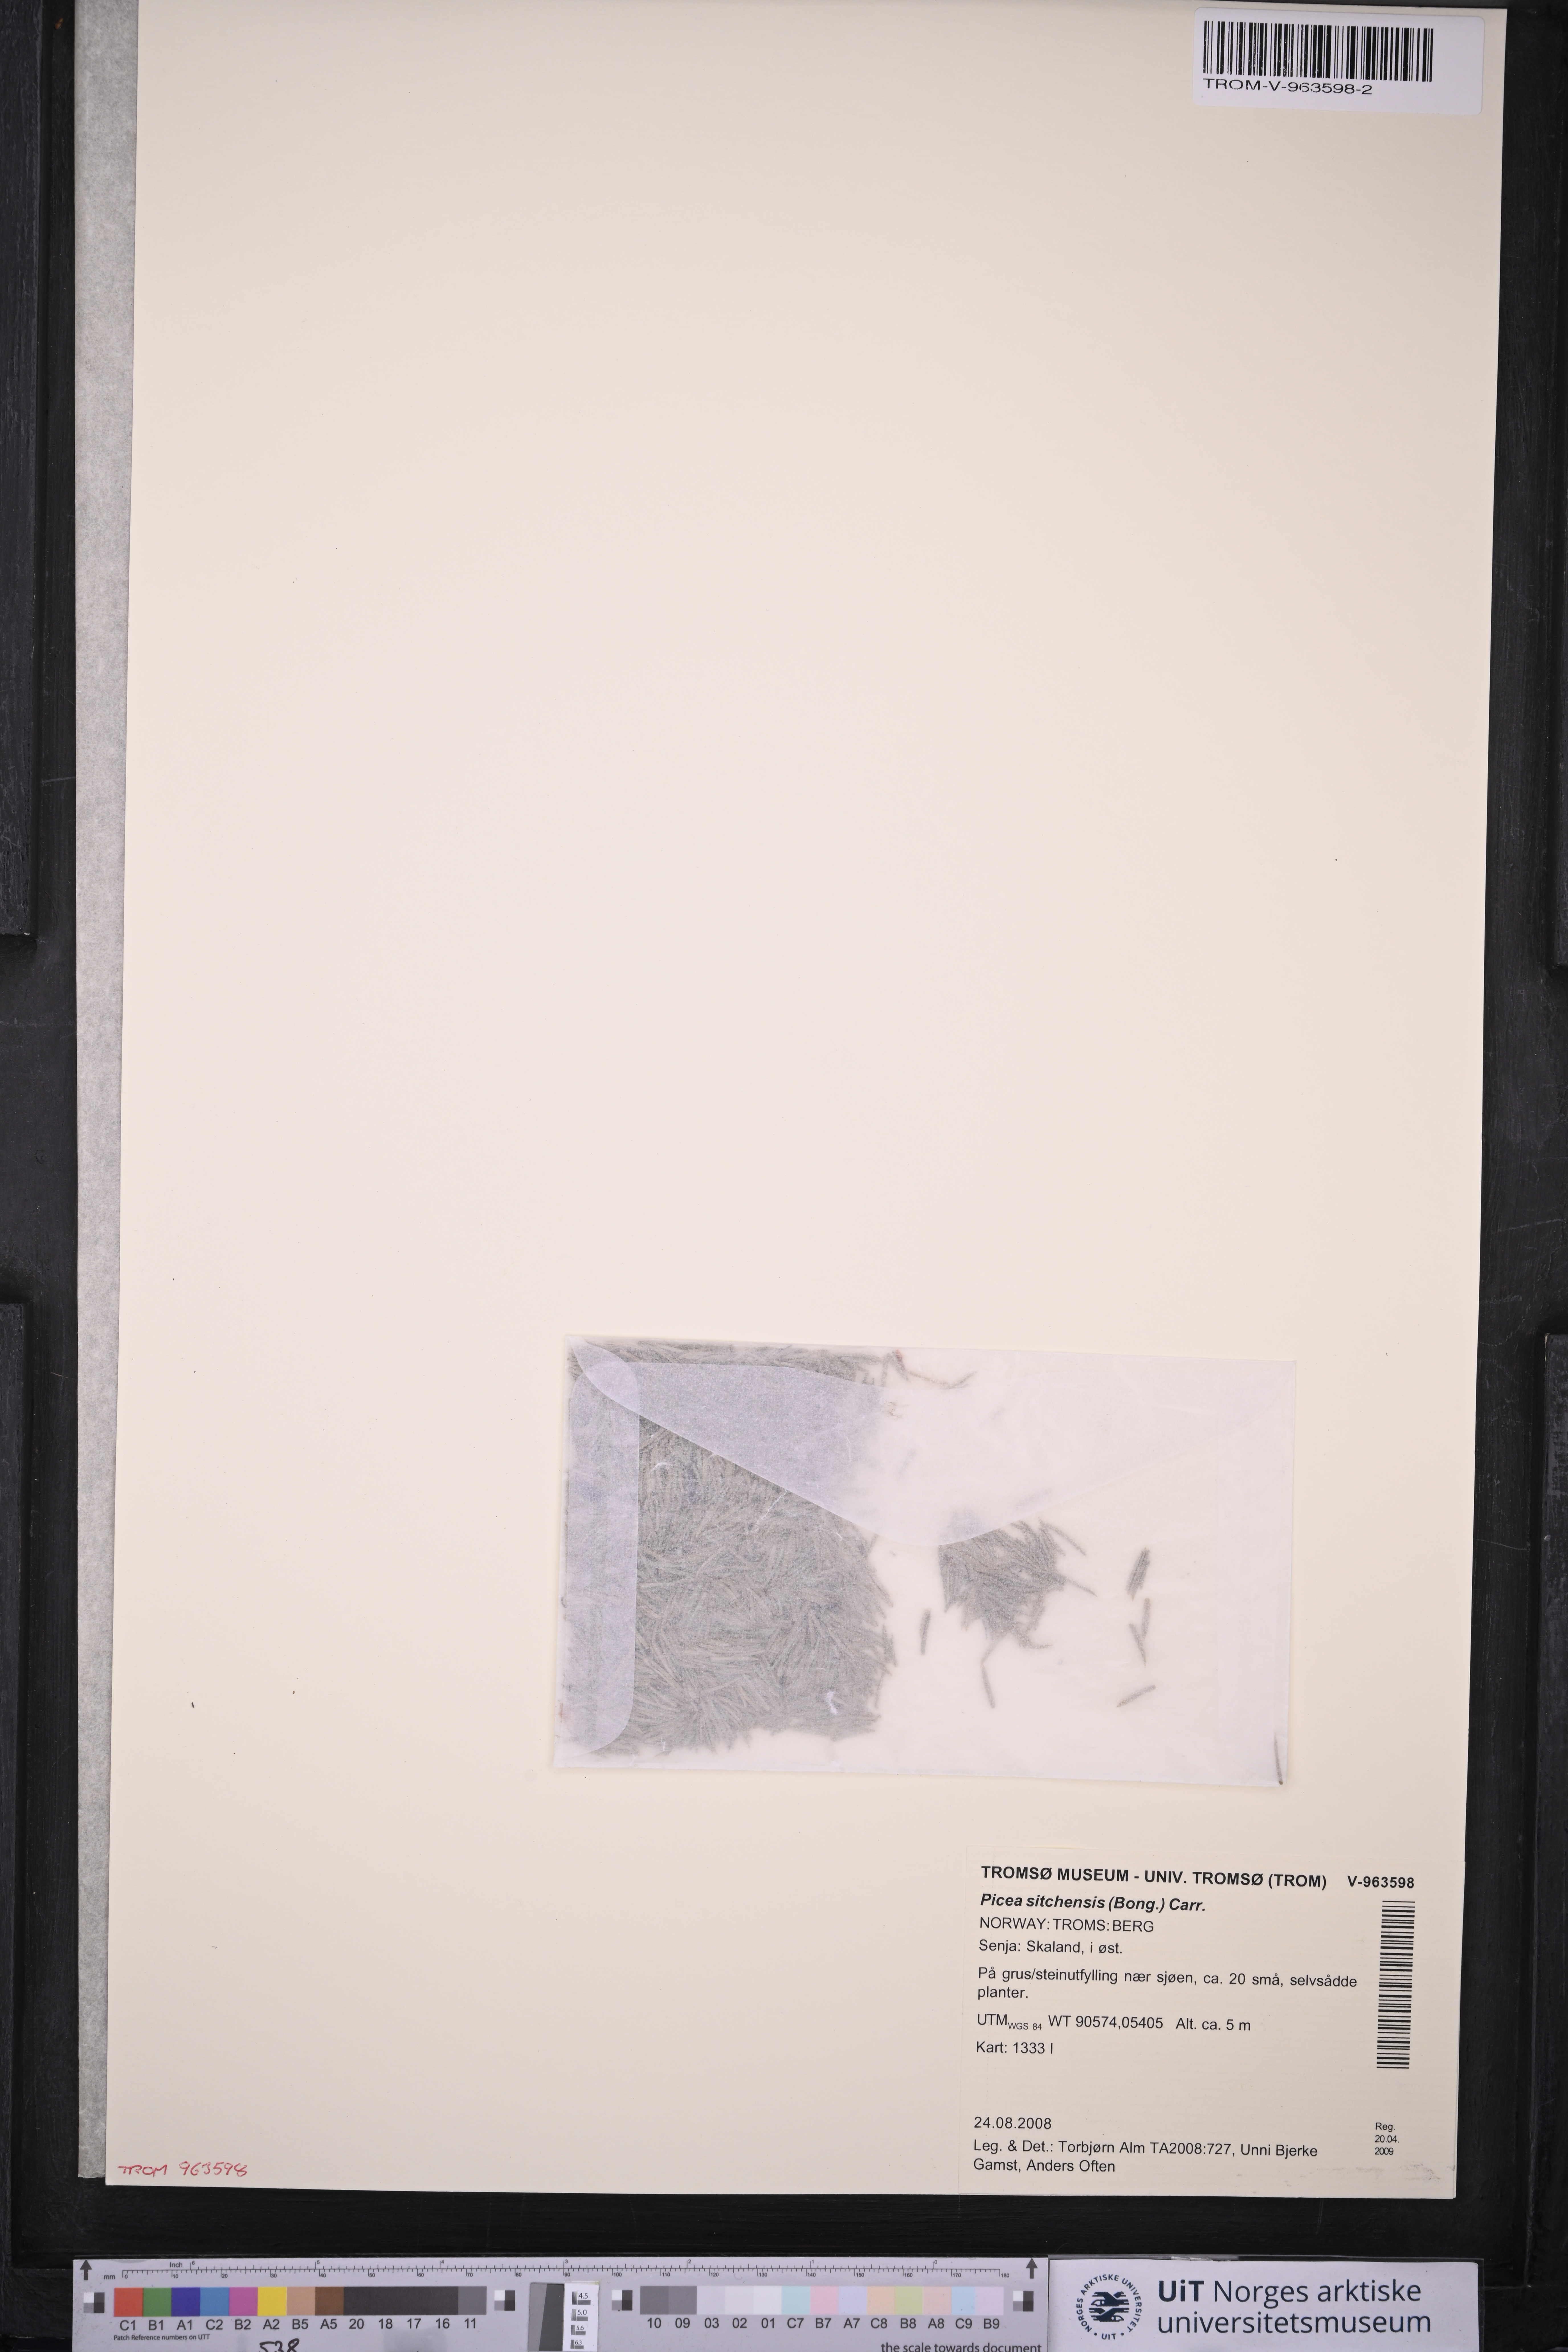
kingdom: Plantae
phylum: Tracheophyta
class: Pinopsida
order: Pinales
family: Pinaceae
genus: Picea
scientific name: Picea sitchensis
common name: Sitka spruce
